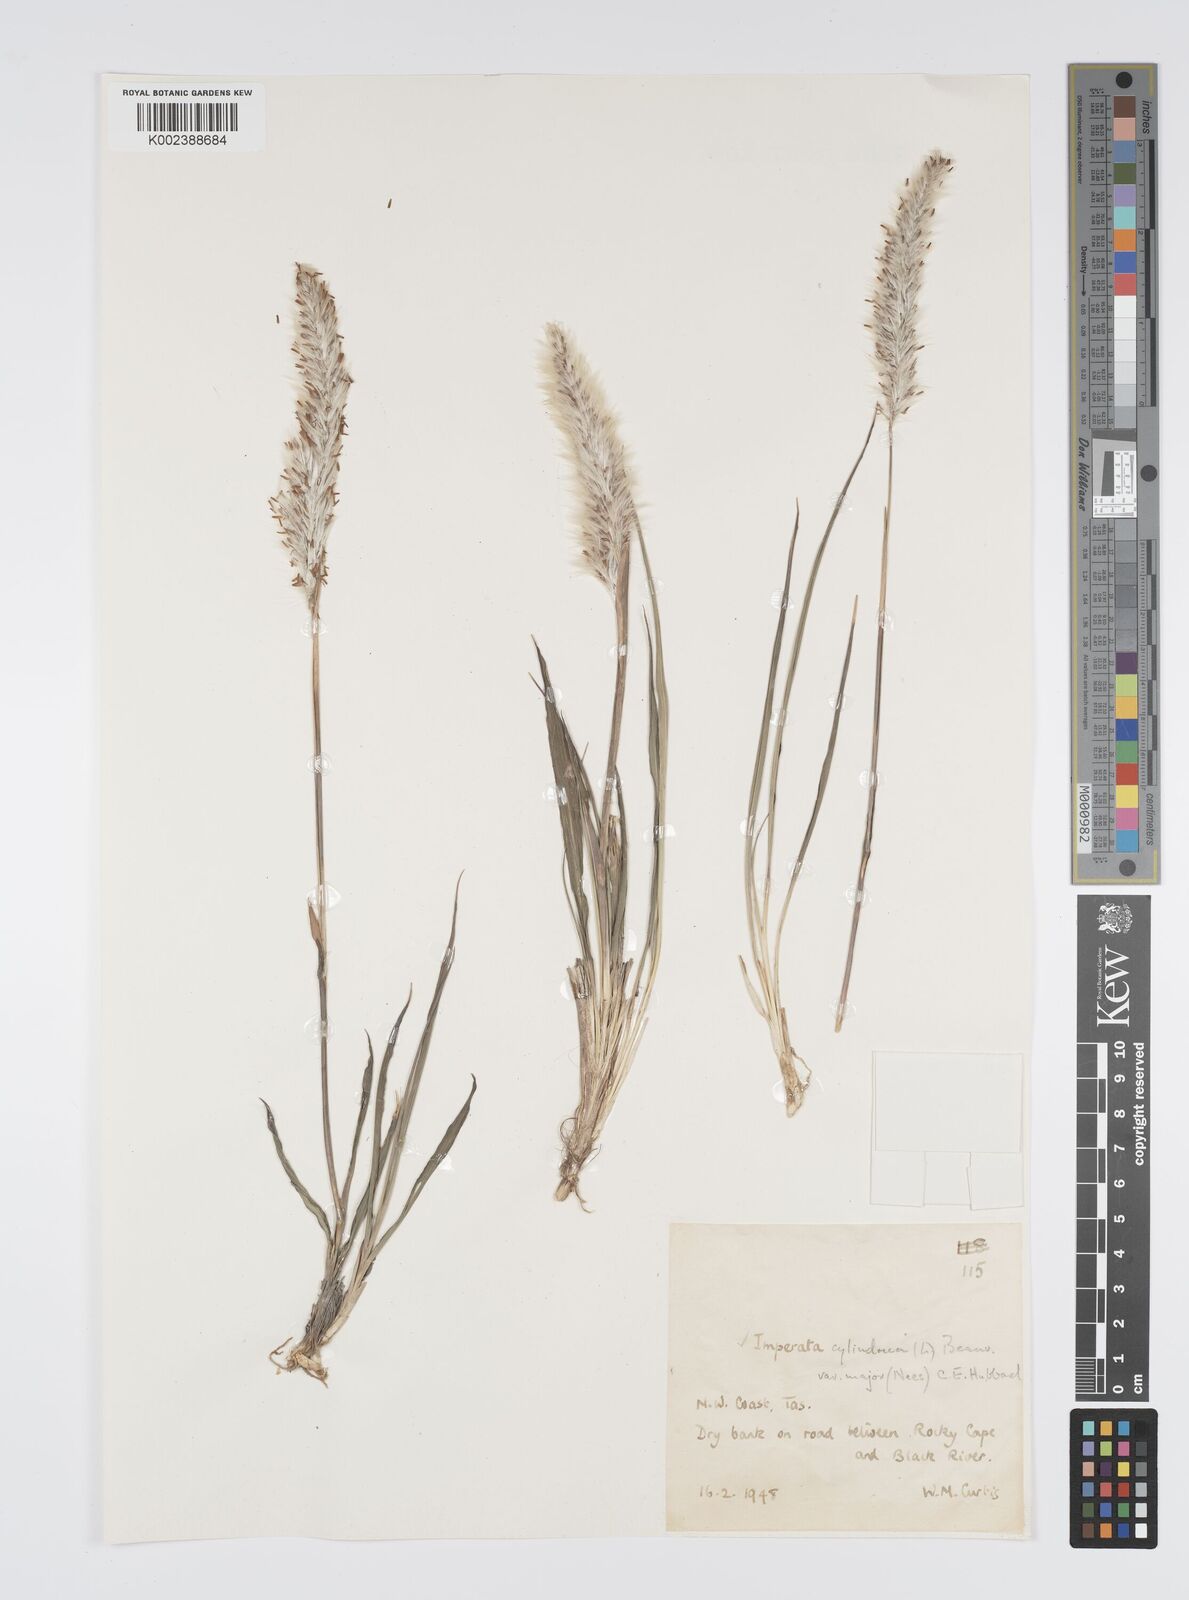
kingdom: Plantae
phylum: Tracheophyta
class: Liliopsida
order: Poales
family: Poaceae
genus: Imperata
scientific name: Imperata cylindrica
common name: Cogongrass
